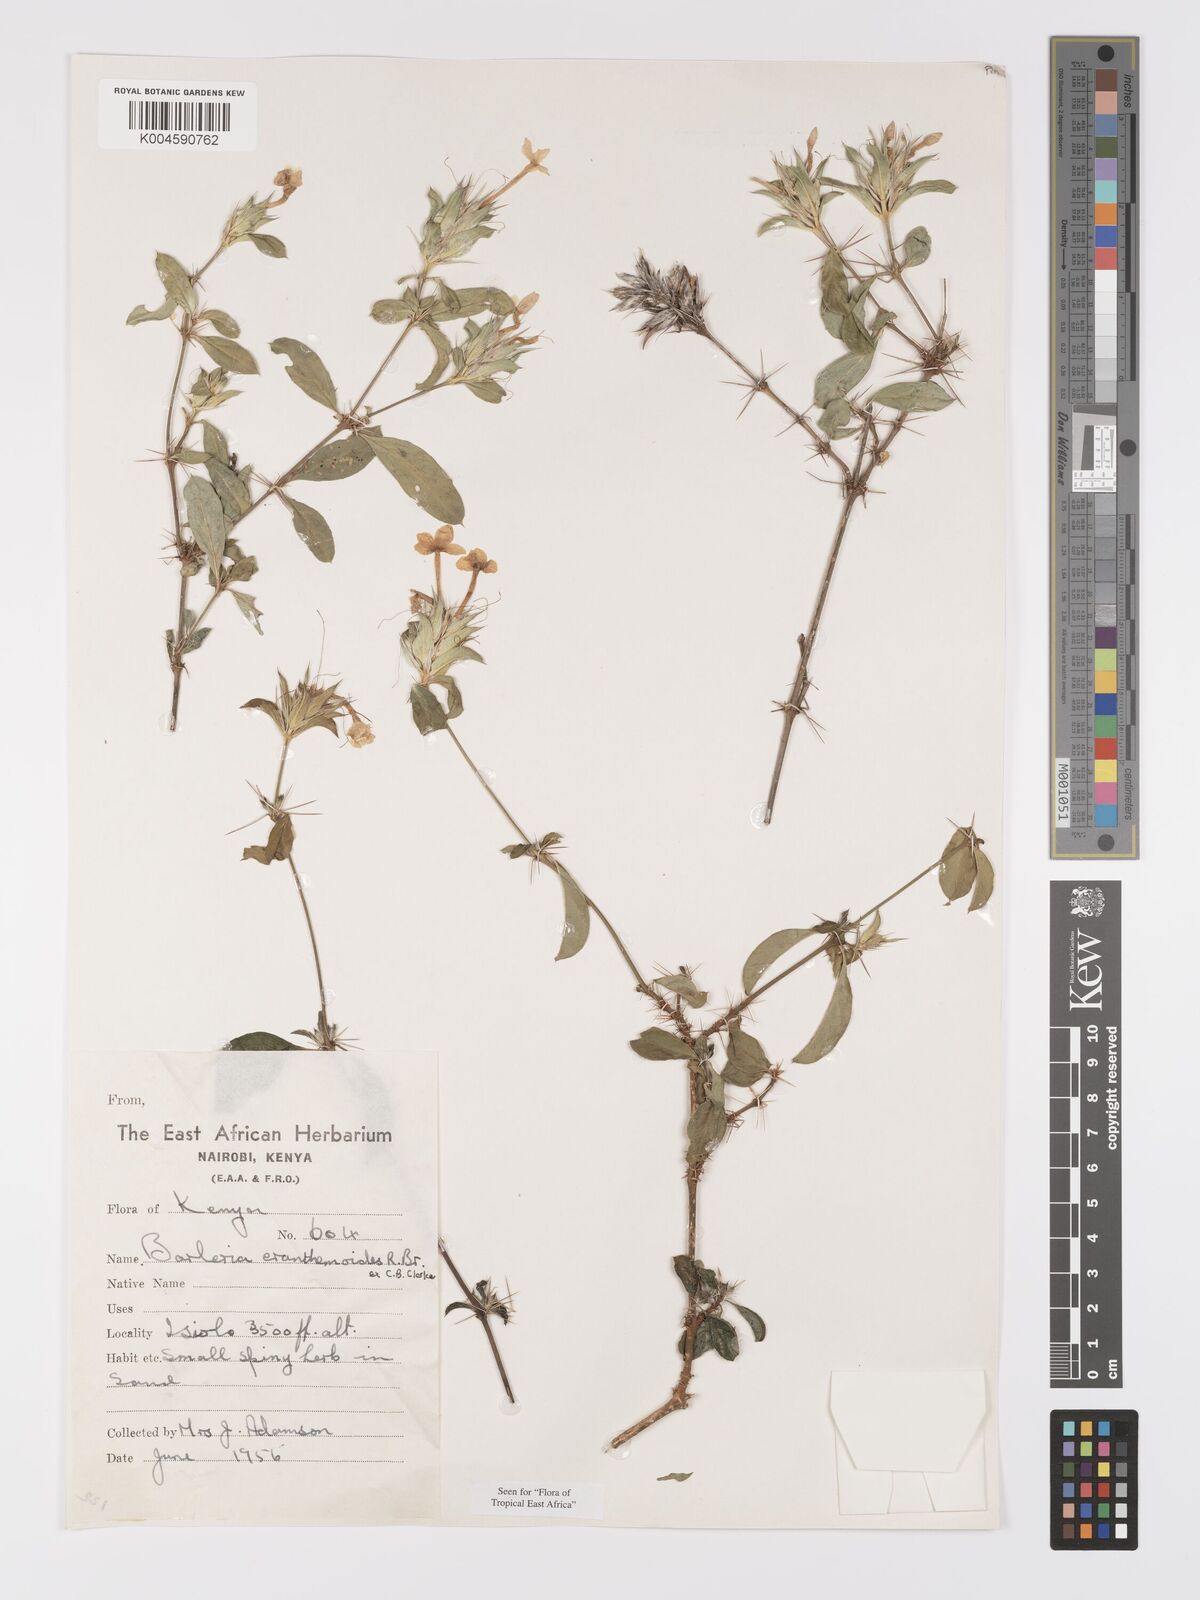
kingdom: Plantae
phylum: Tracheophyta
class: Magnoliopsida
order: Lamiales
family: Acanthaceae
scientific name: Acanthaceae
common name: Acanthaceae
